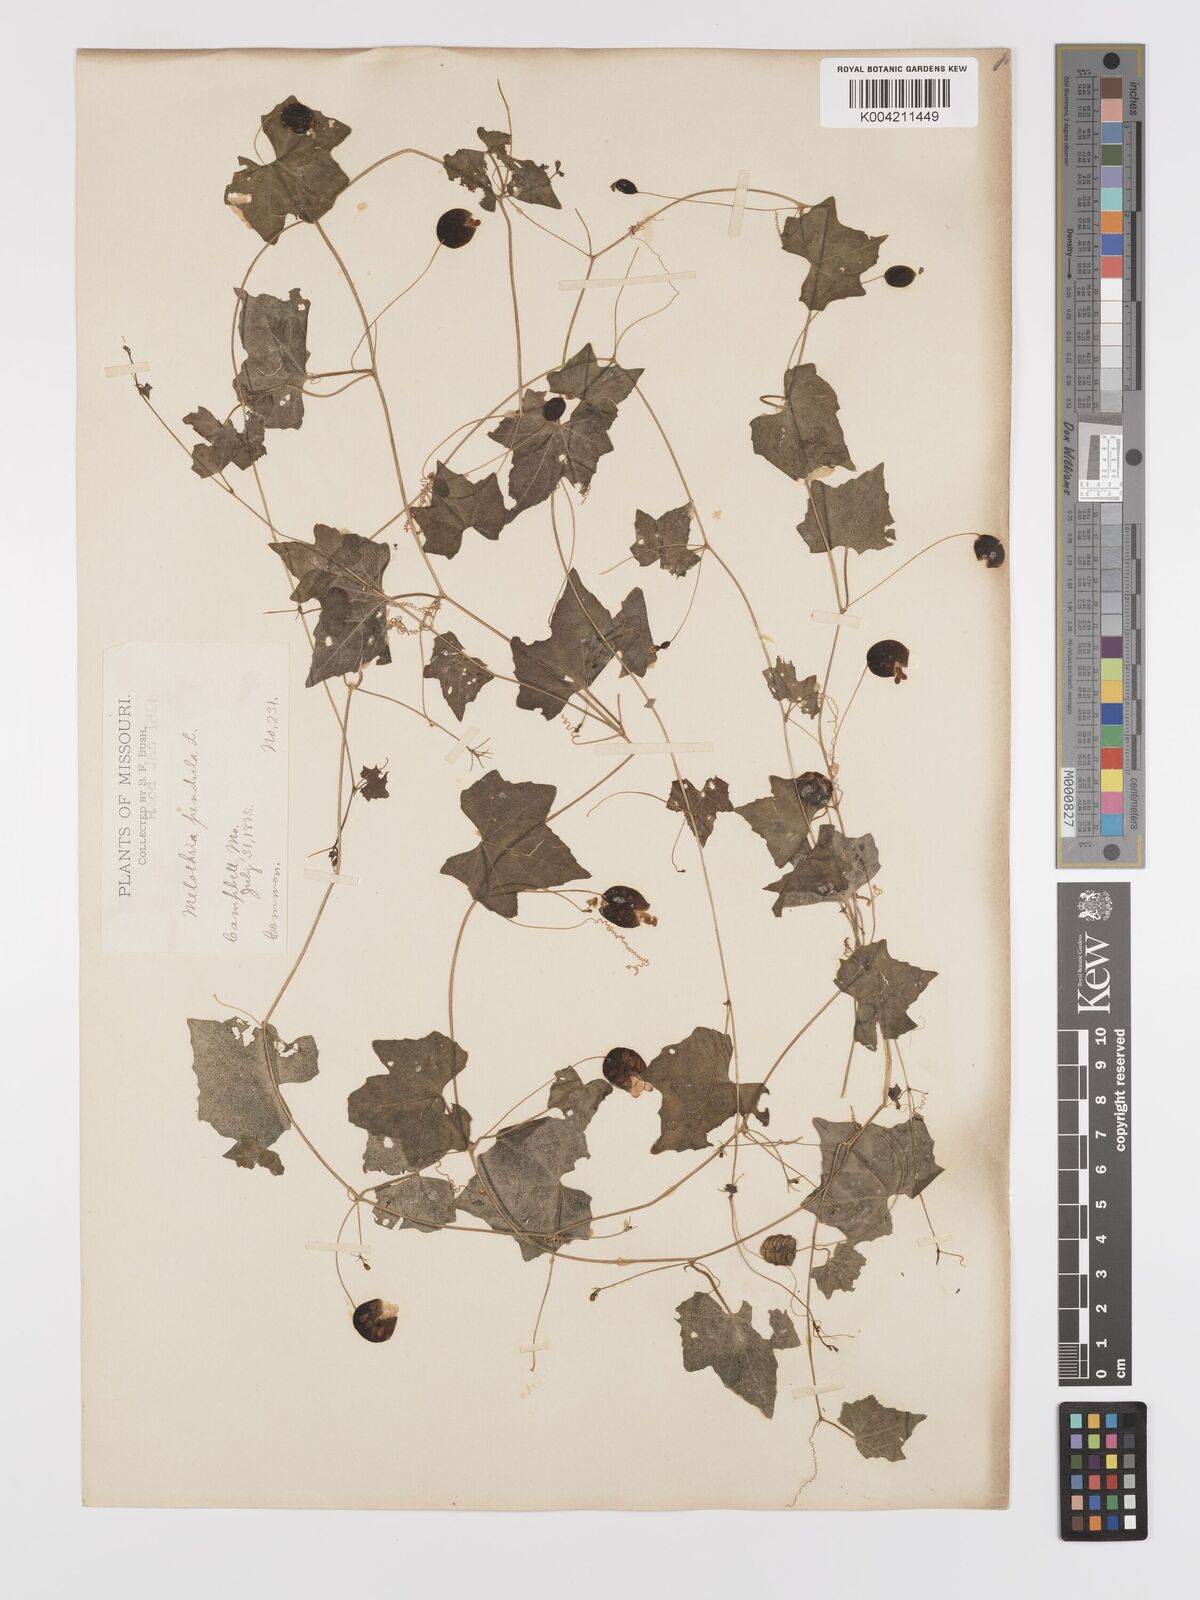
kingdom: Plantae
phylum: Tracheophyta
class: Magnoliopsida
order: Cucurbitales
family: Cucurbitaceae
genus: Melothria
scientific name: Melothria pendula
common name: Creeping-cucumber
